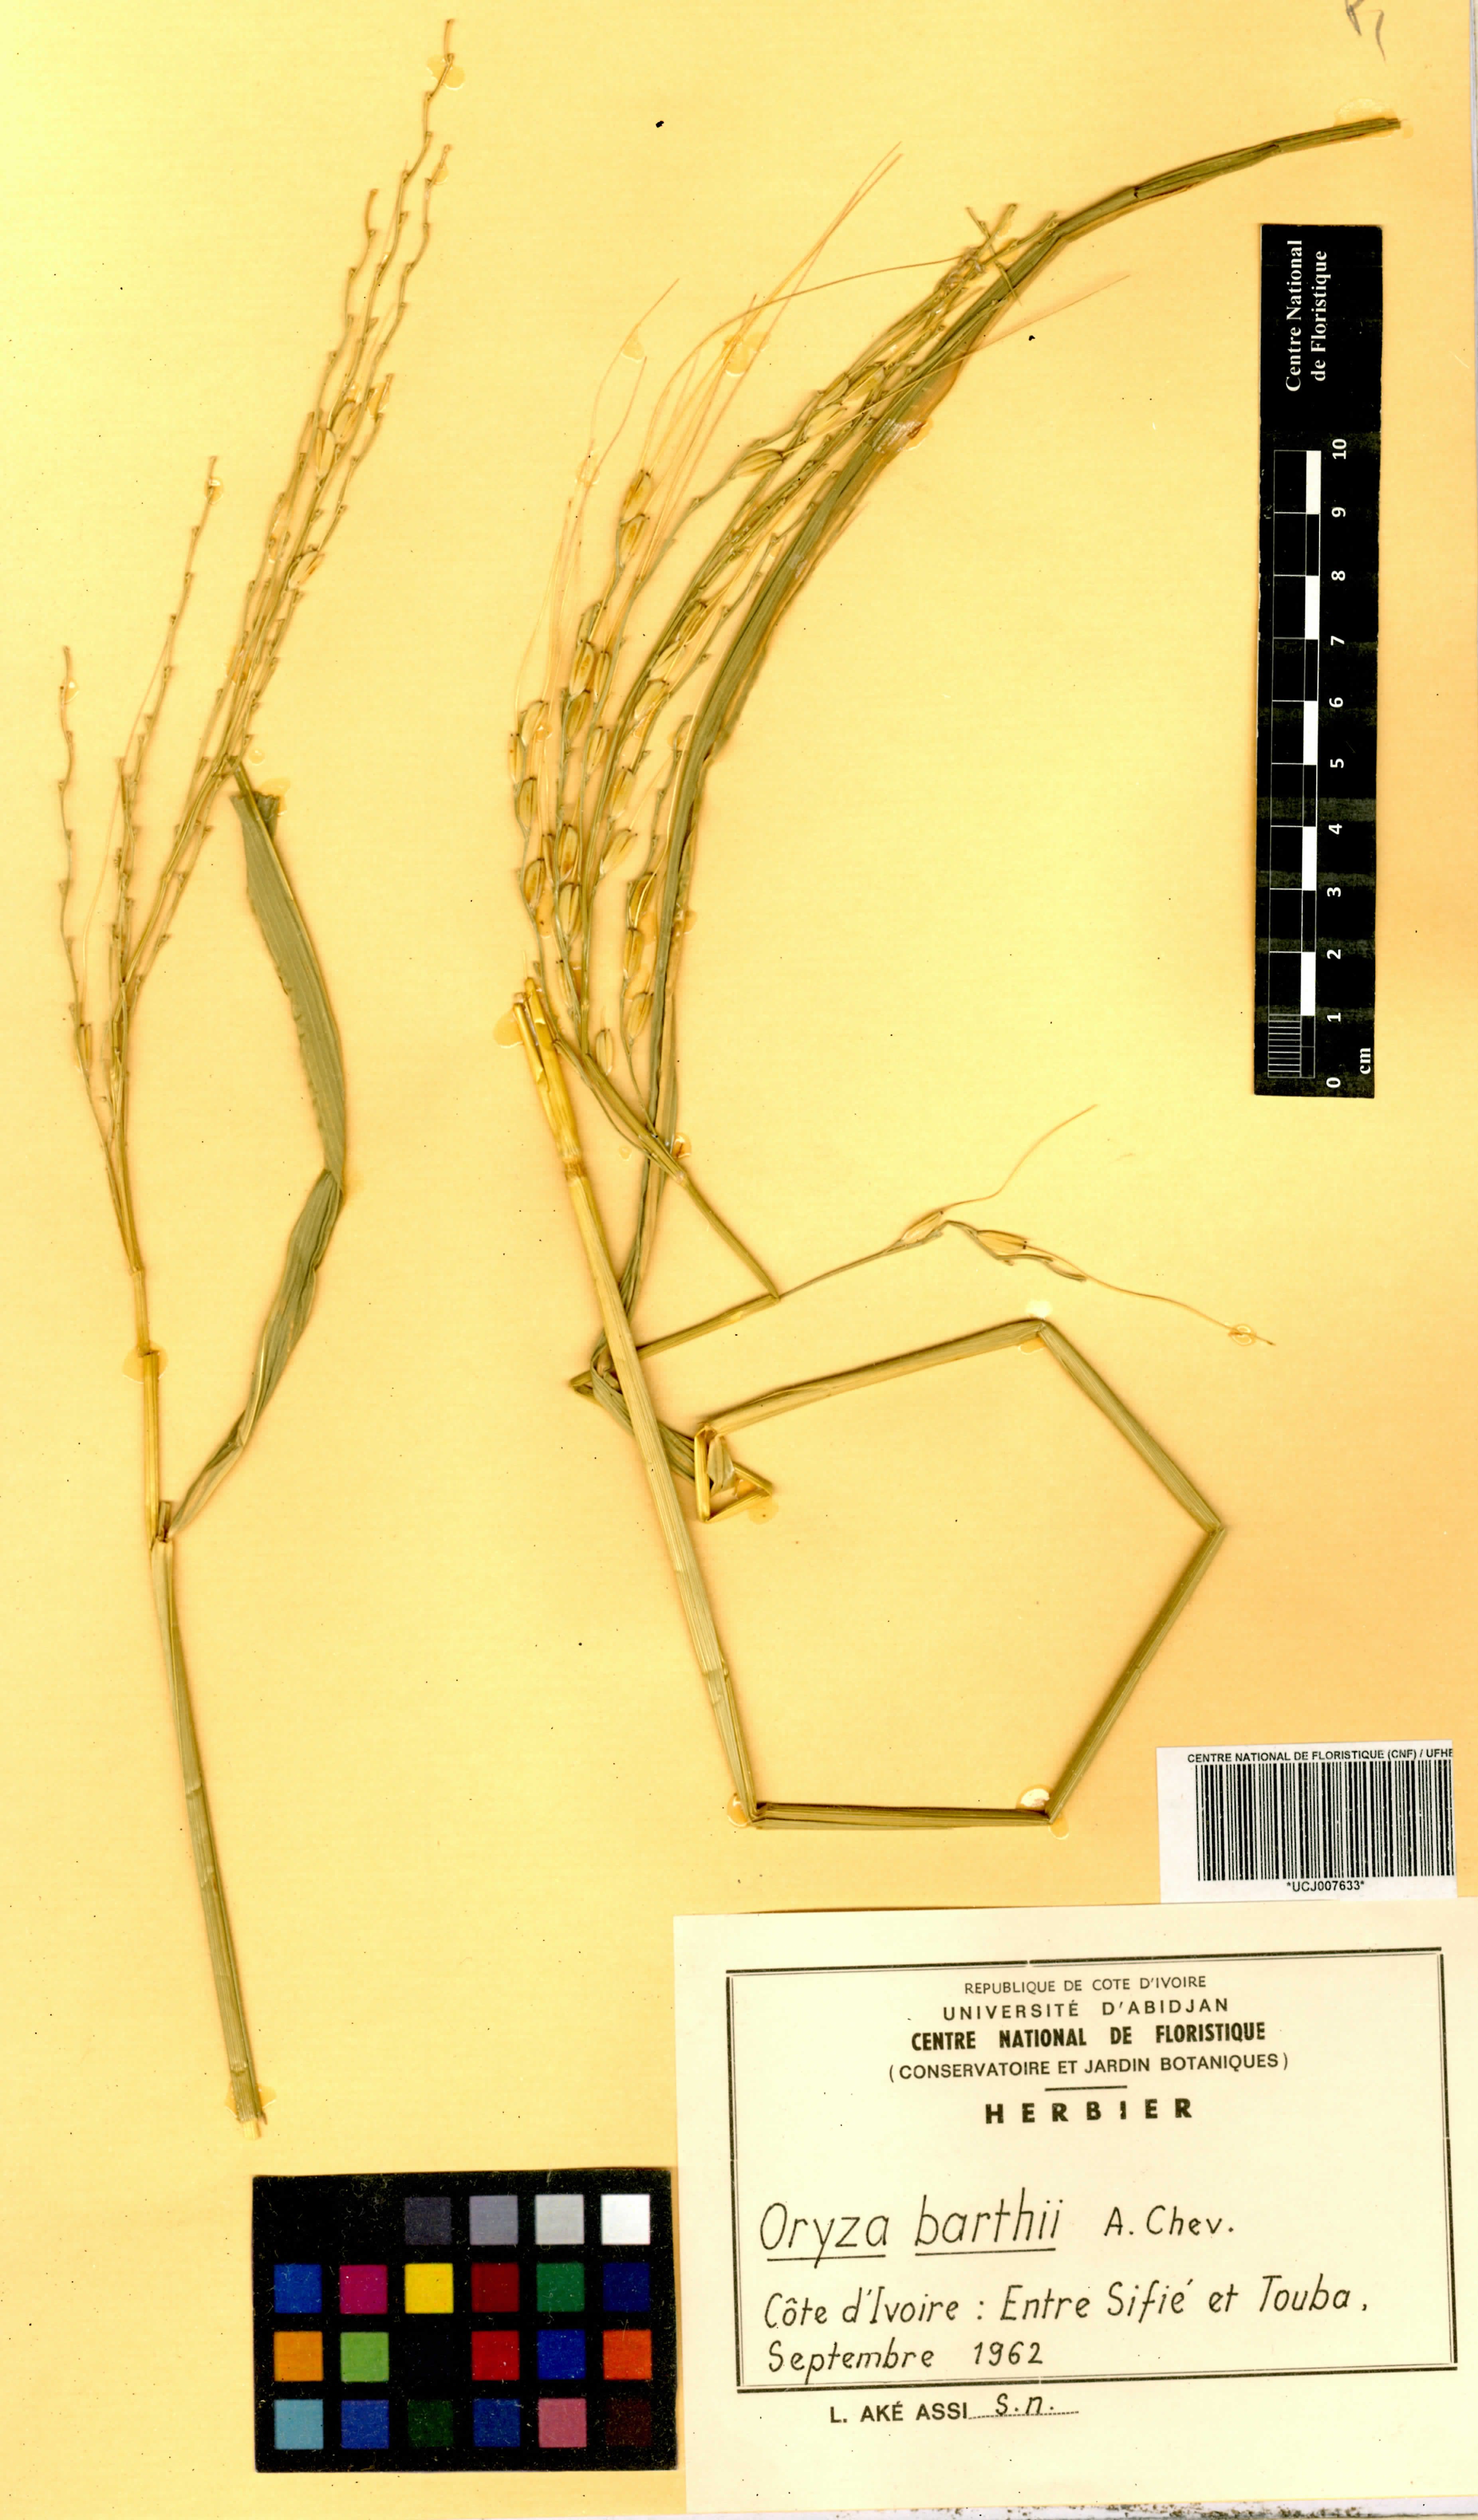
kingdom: Plantae
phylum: Tracheophyta
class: Liliopsida
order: Poales
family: Poaceae
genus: Oryza
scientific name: Oryza barthii
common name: Wild rice
